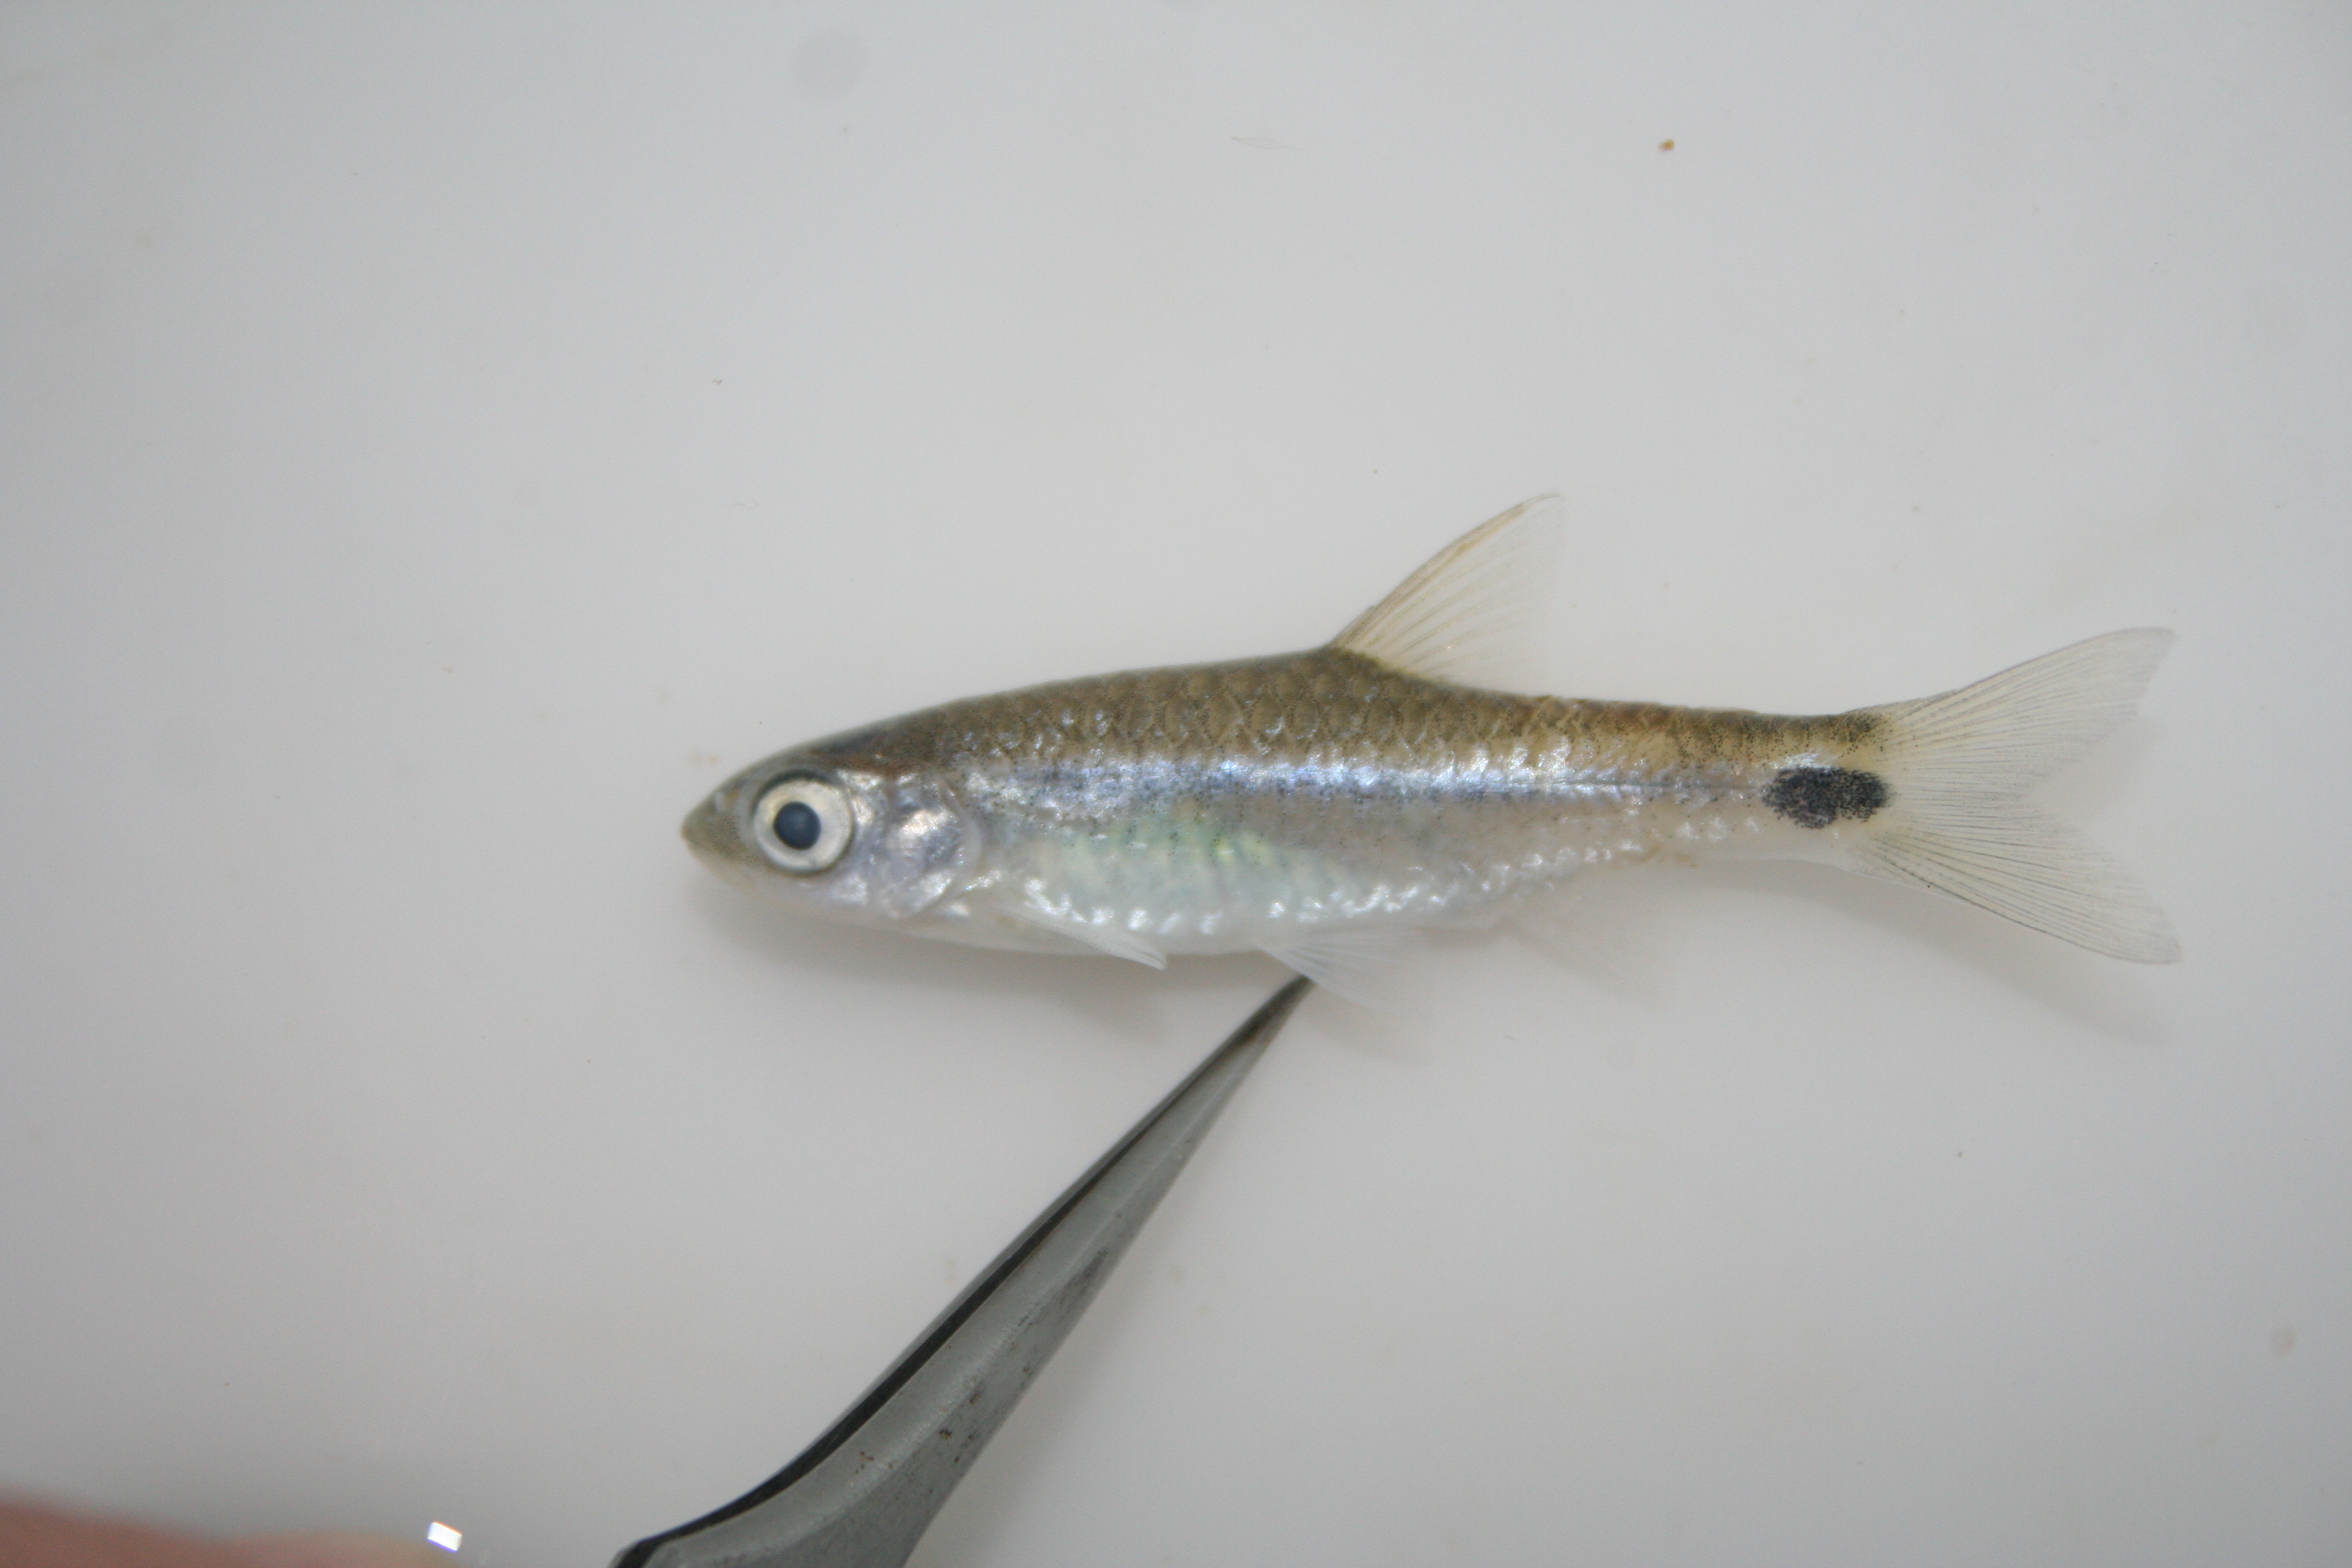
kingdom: Animalia
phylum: Chordata
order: Cypriniformes
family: Cyprinidae
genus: Barbus
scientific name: Barbus
